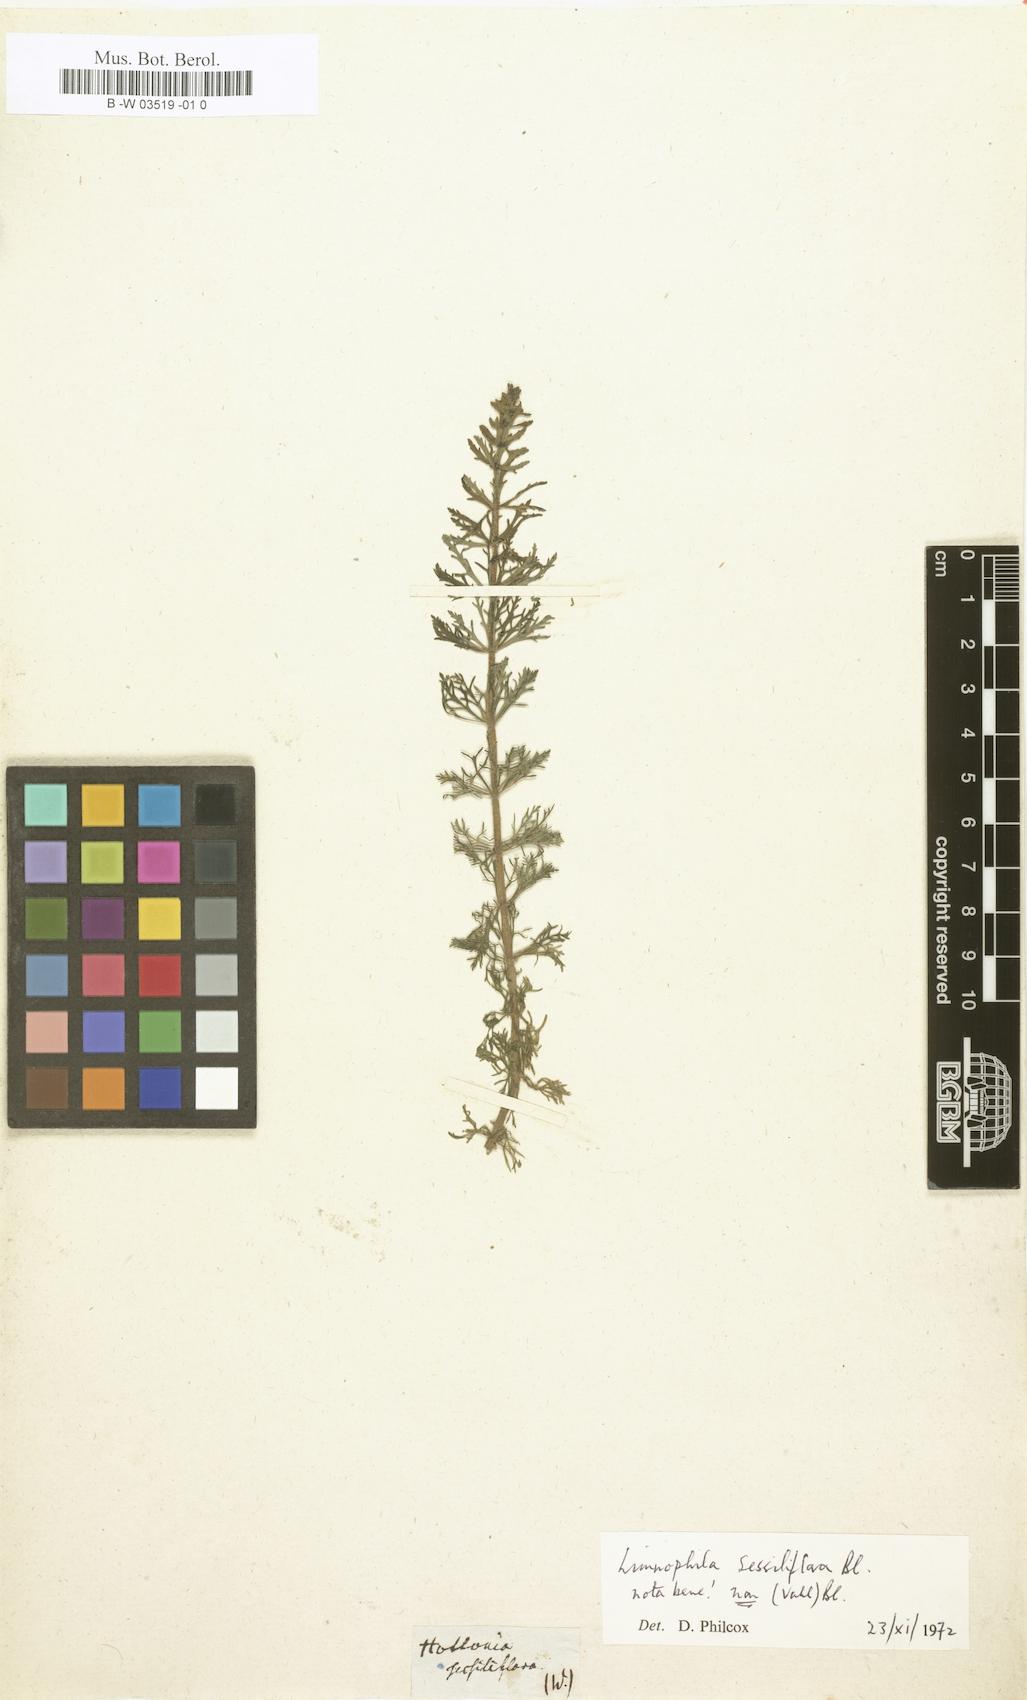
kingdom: Plantae
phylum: Tracheophyta
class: Magnoliopsida
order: Lamiales
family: Plantaginaceae
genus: Limnophila
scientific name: Limnophila sessiliflora
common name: Asian marshweed
